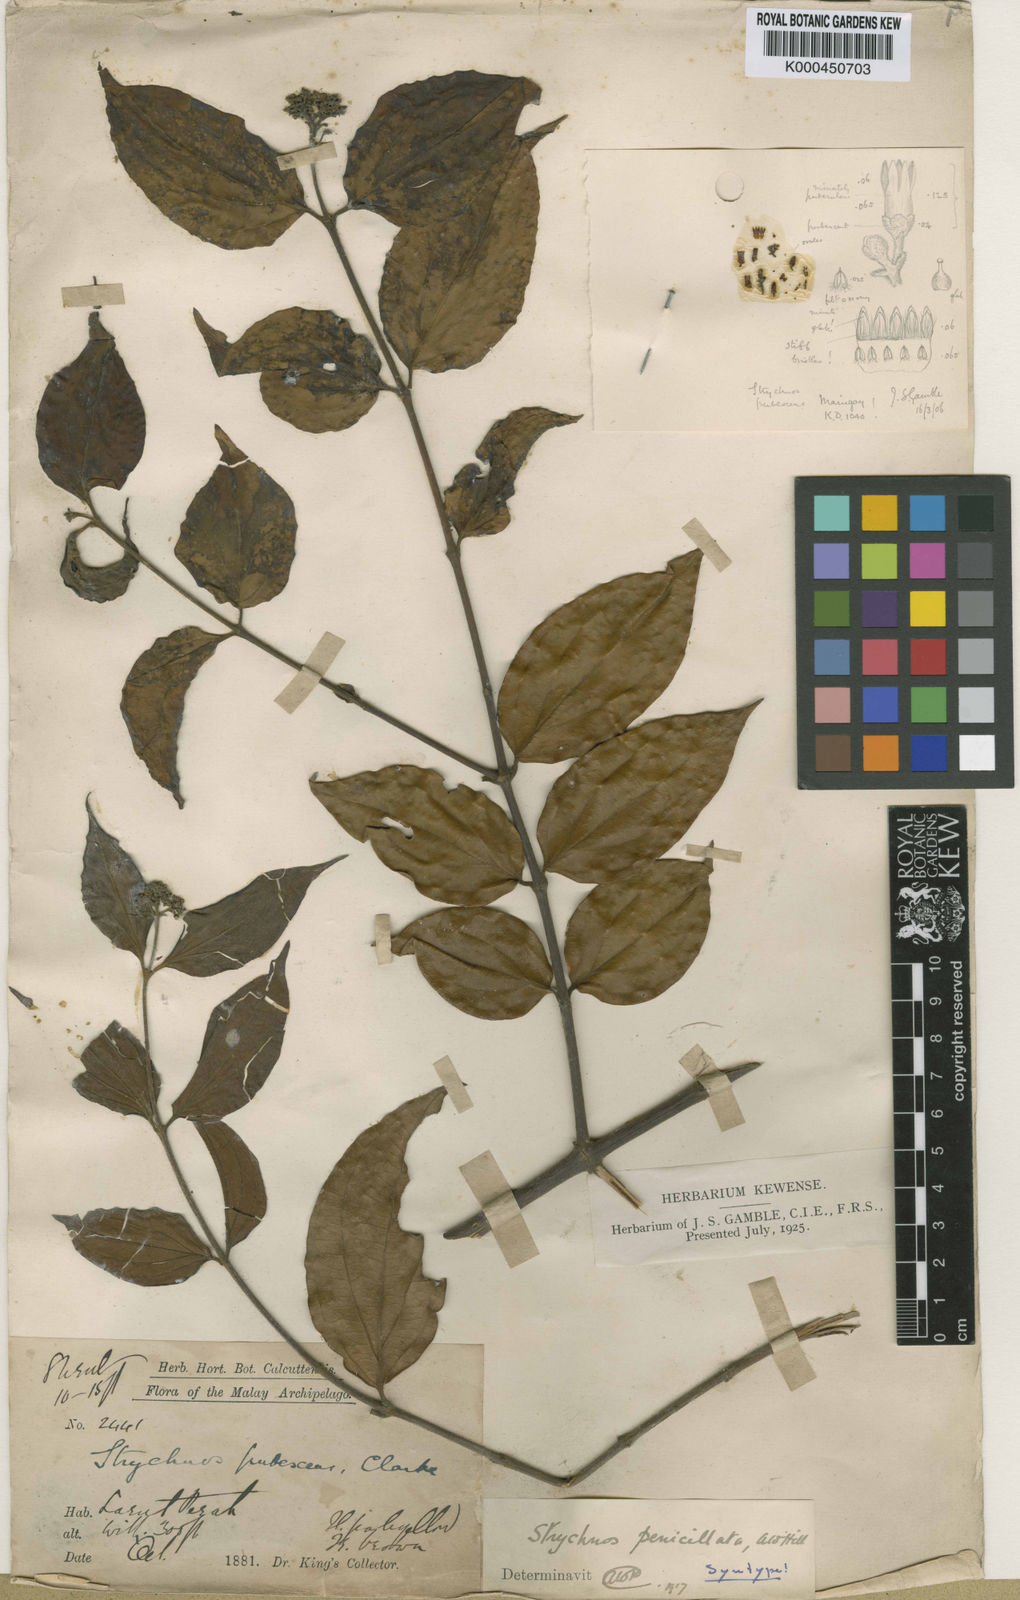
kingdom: Plantae
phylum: Tracheophyta
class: Magnoliopsida
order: Gentianales
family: Loganiaceae
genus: Strychnos
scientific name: Strychnos
